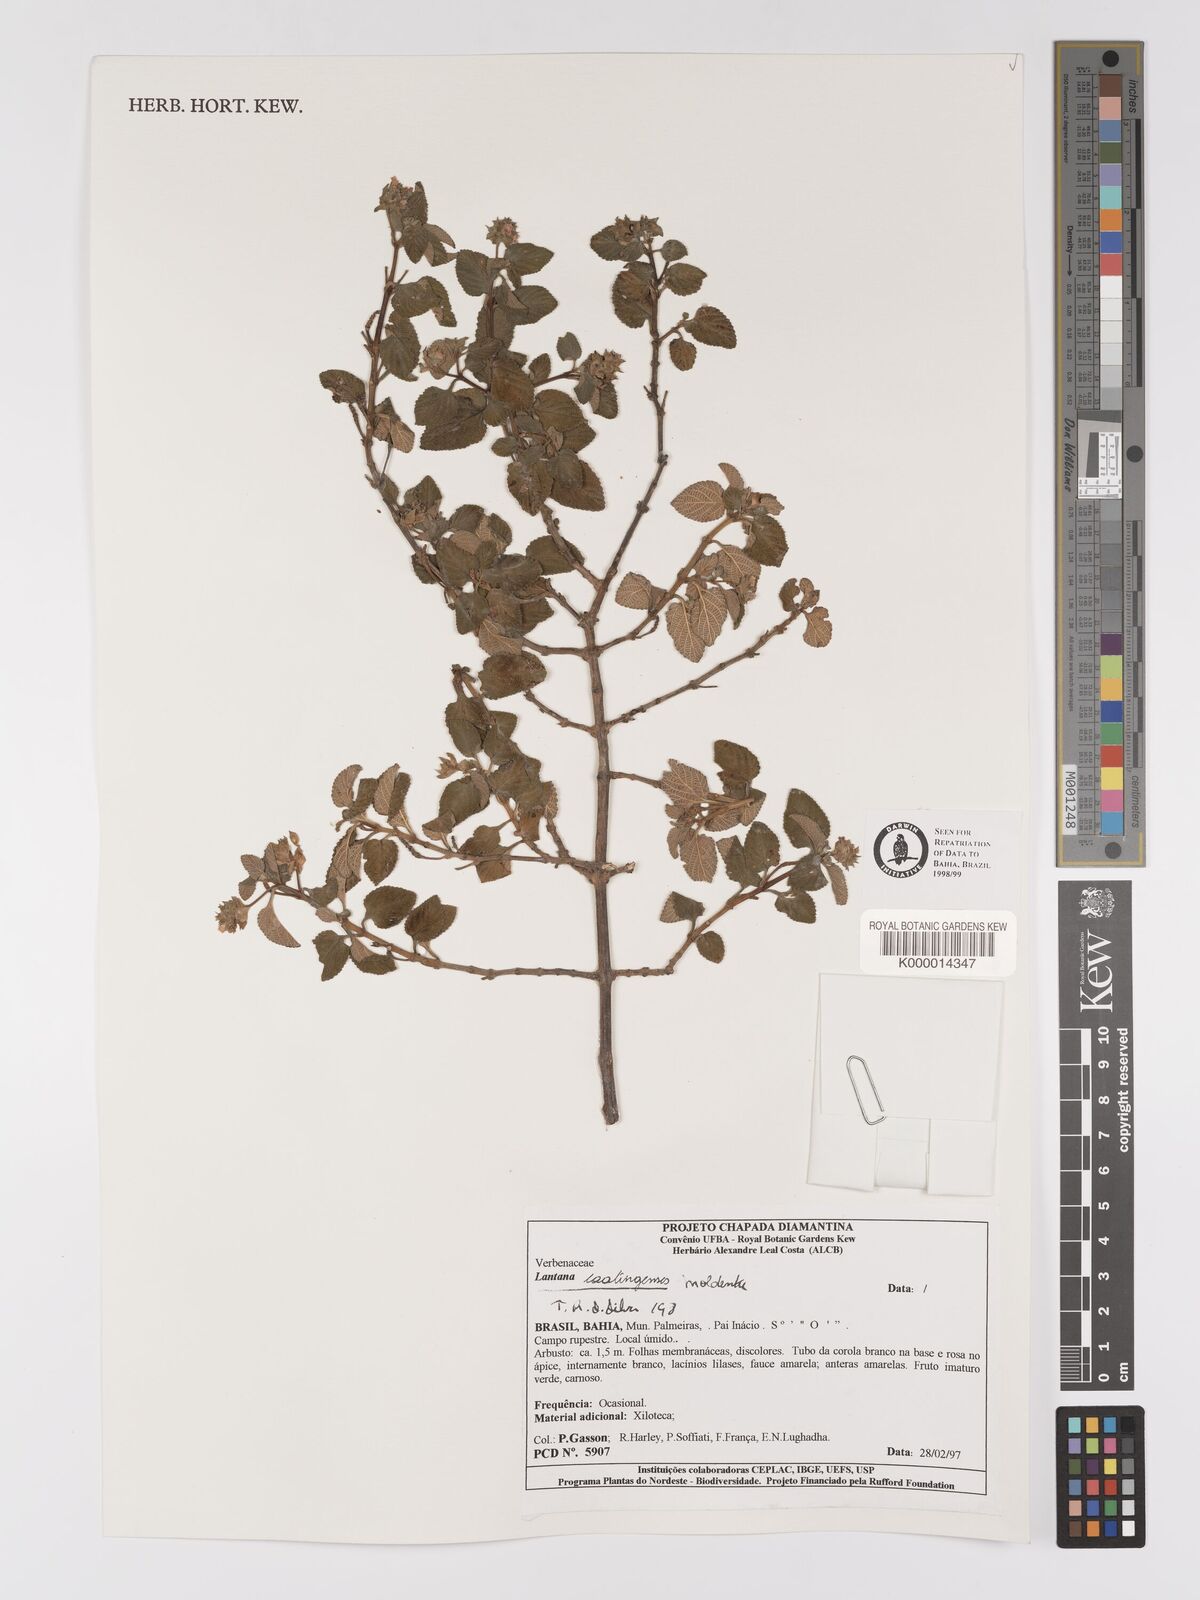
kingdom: Plantae
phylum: Tracheophyta
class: Magnoliopsida
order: Lamiales
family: Verbenaceae
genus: Lantana
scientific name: Lantana caatingensis
